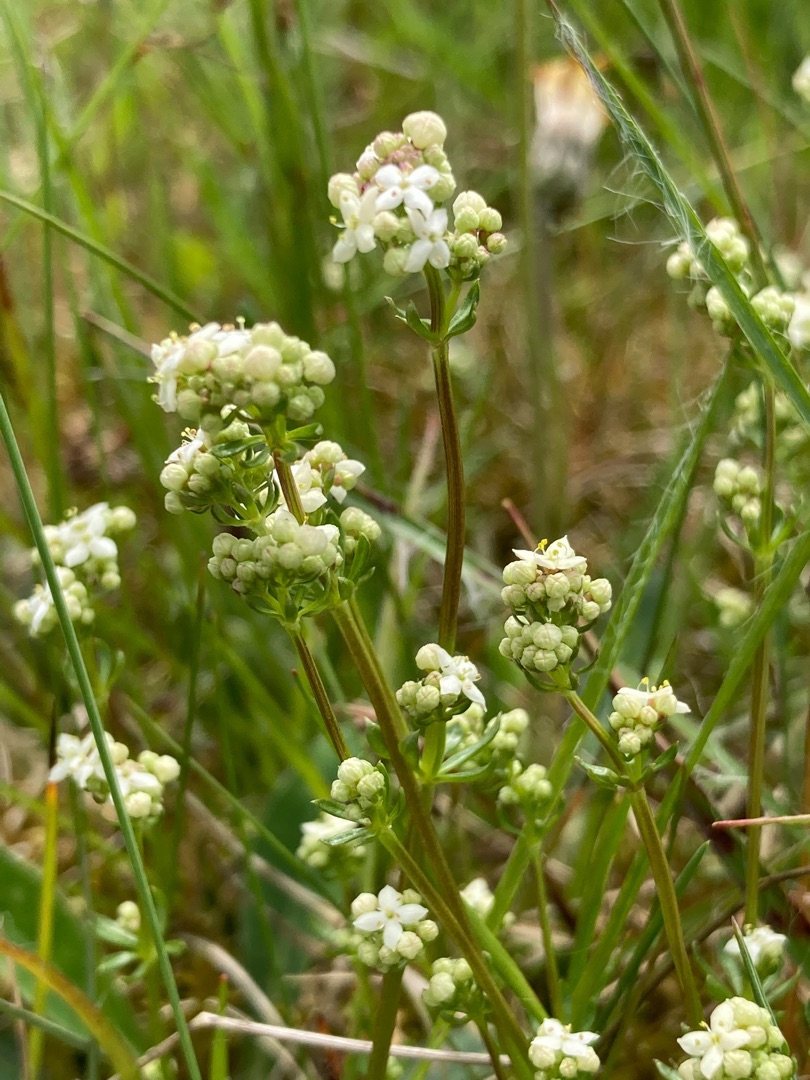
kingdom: Plantae
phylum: Tracheophyta
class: Magnoliopsida
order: Gentianales
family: Rubiaceae
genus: Galium
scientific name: Galium saxatile
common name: Lyng-snerre
